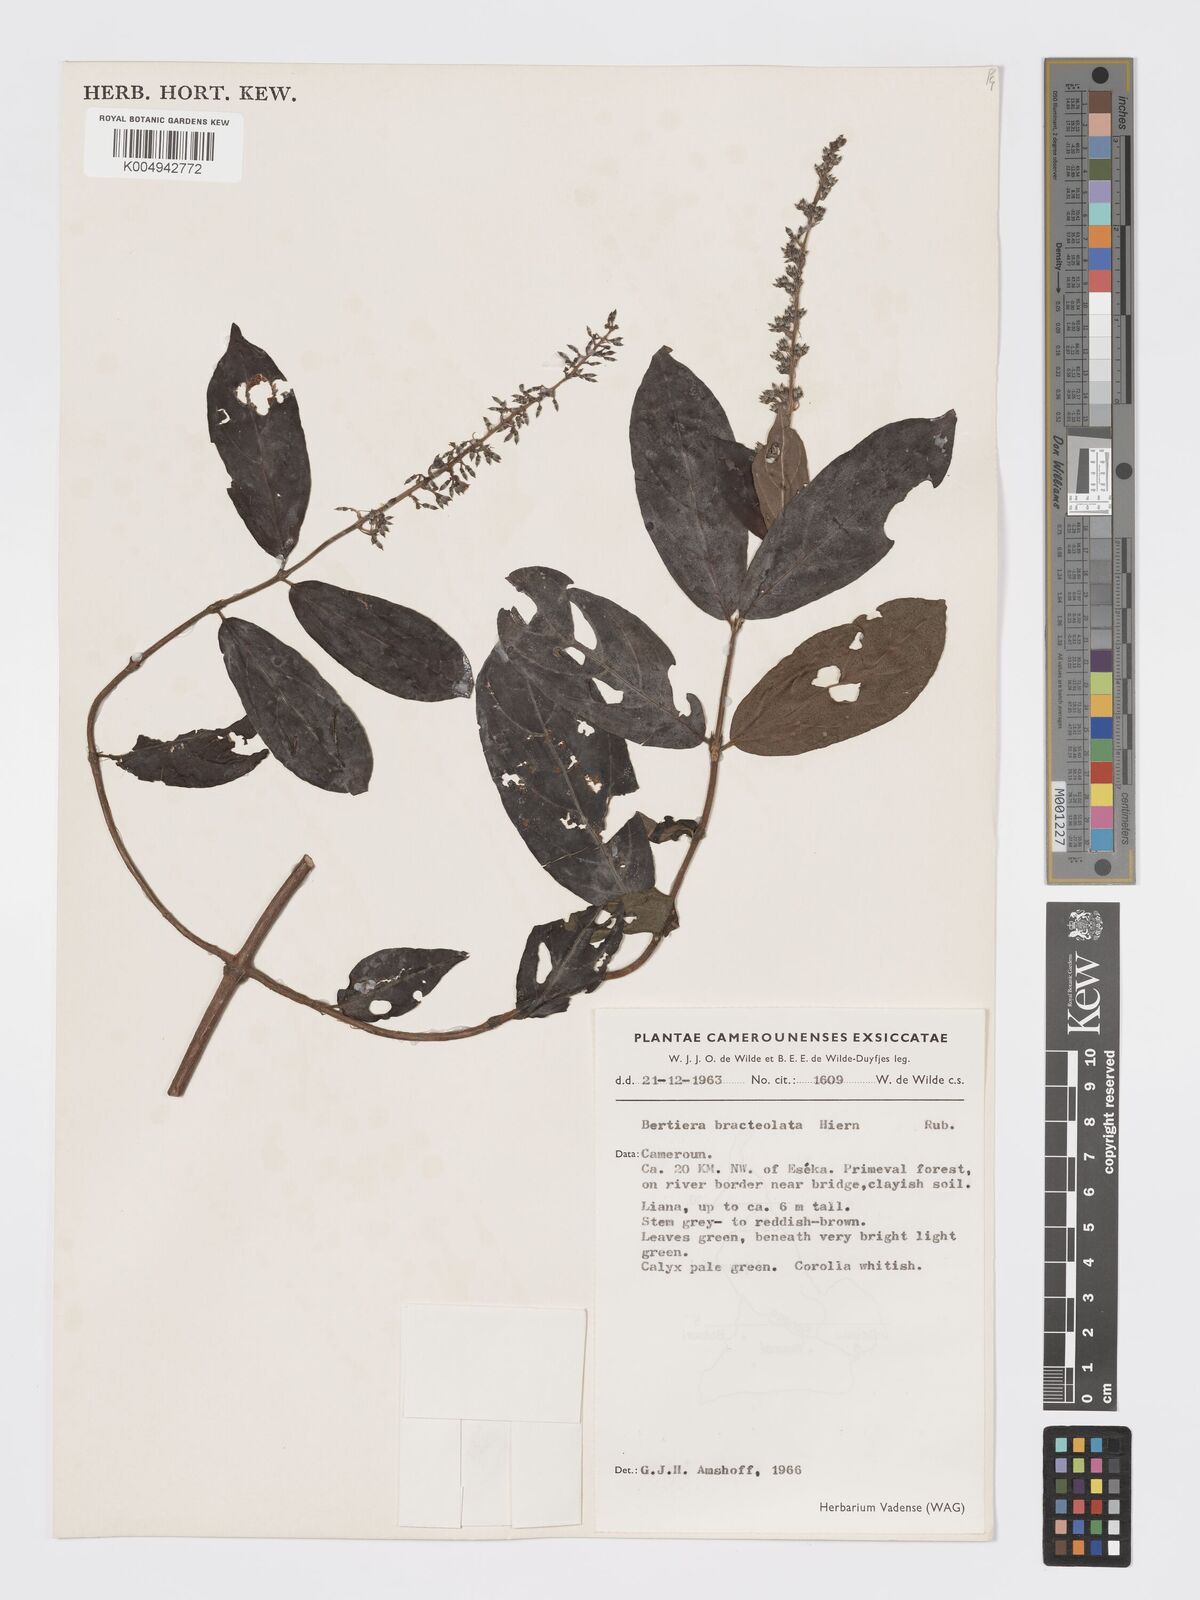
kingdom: Plantae
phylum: Tracheophyta
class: Magnoliopsida
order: Gentianales
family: Rubiaceae
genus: Bertiera
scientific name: Bertiera bracteolata
